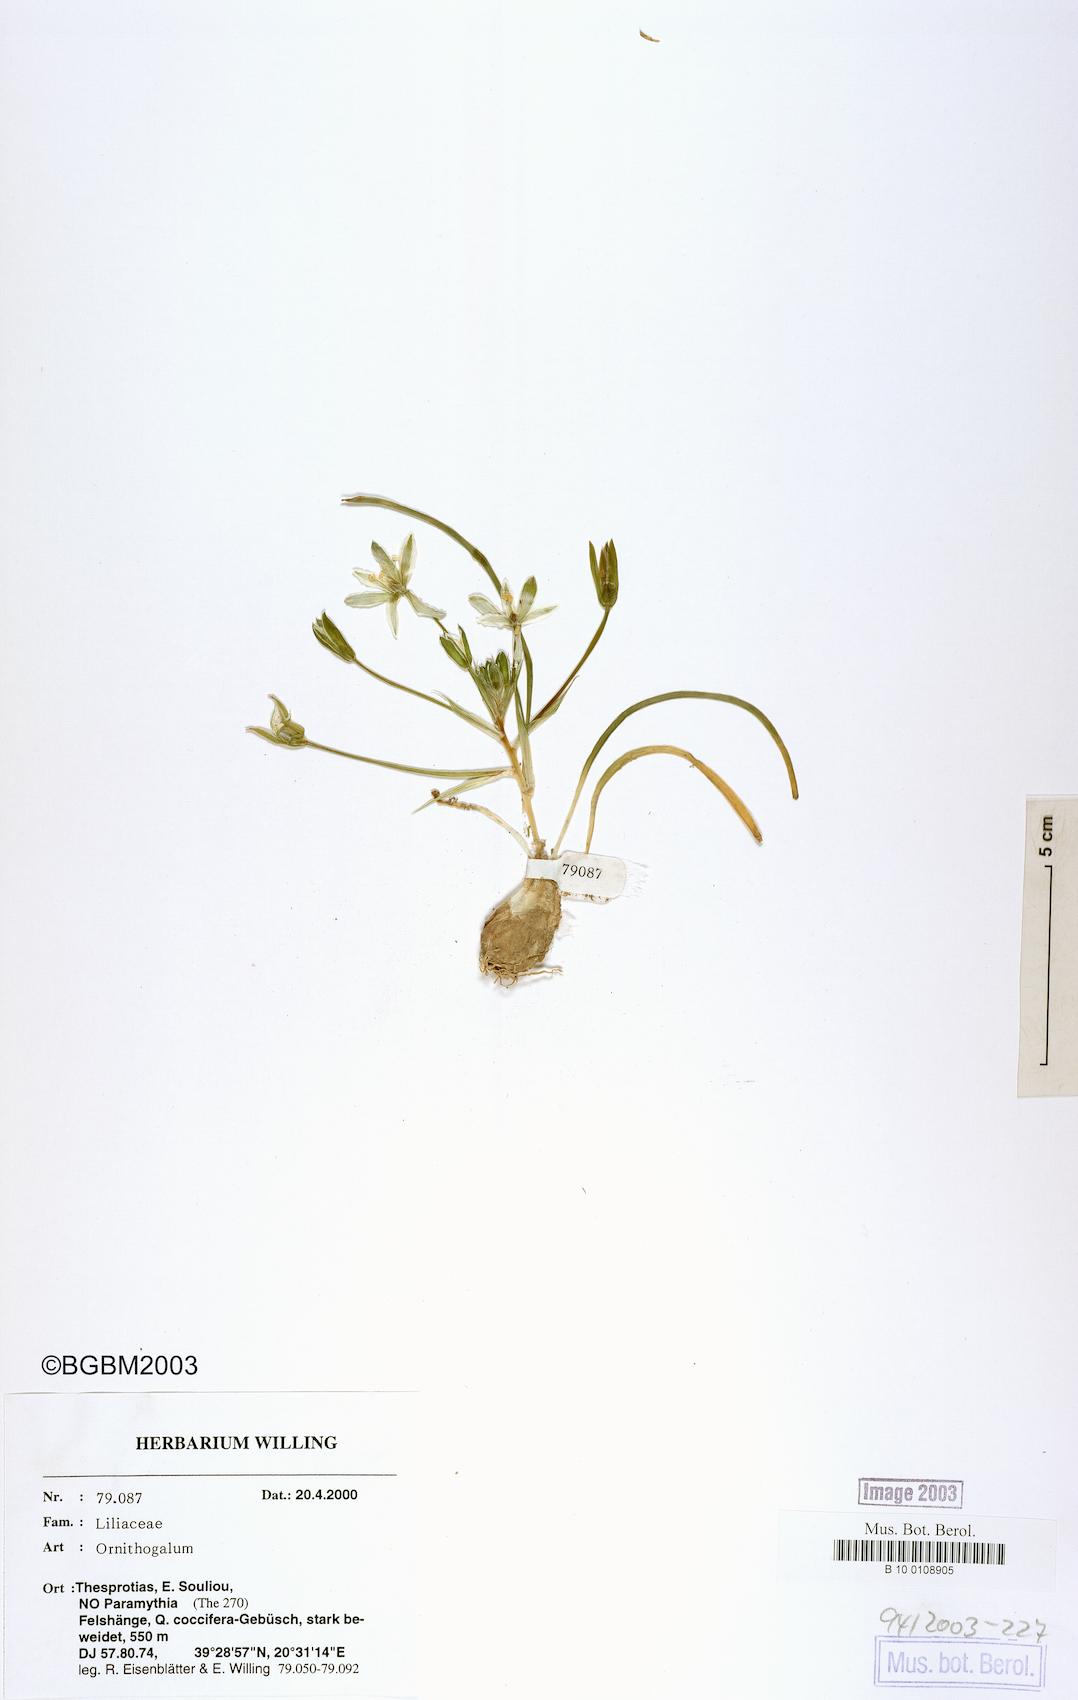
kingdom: Plantae
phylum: Tracheophyta
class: Liliopsida
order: Asparagales
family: Asparagaceae
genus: Ornithogalum
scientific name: Ornithogalum
